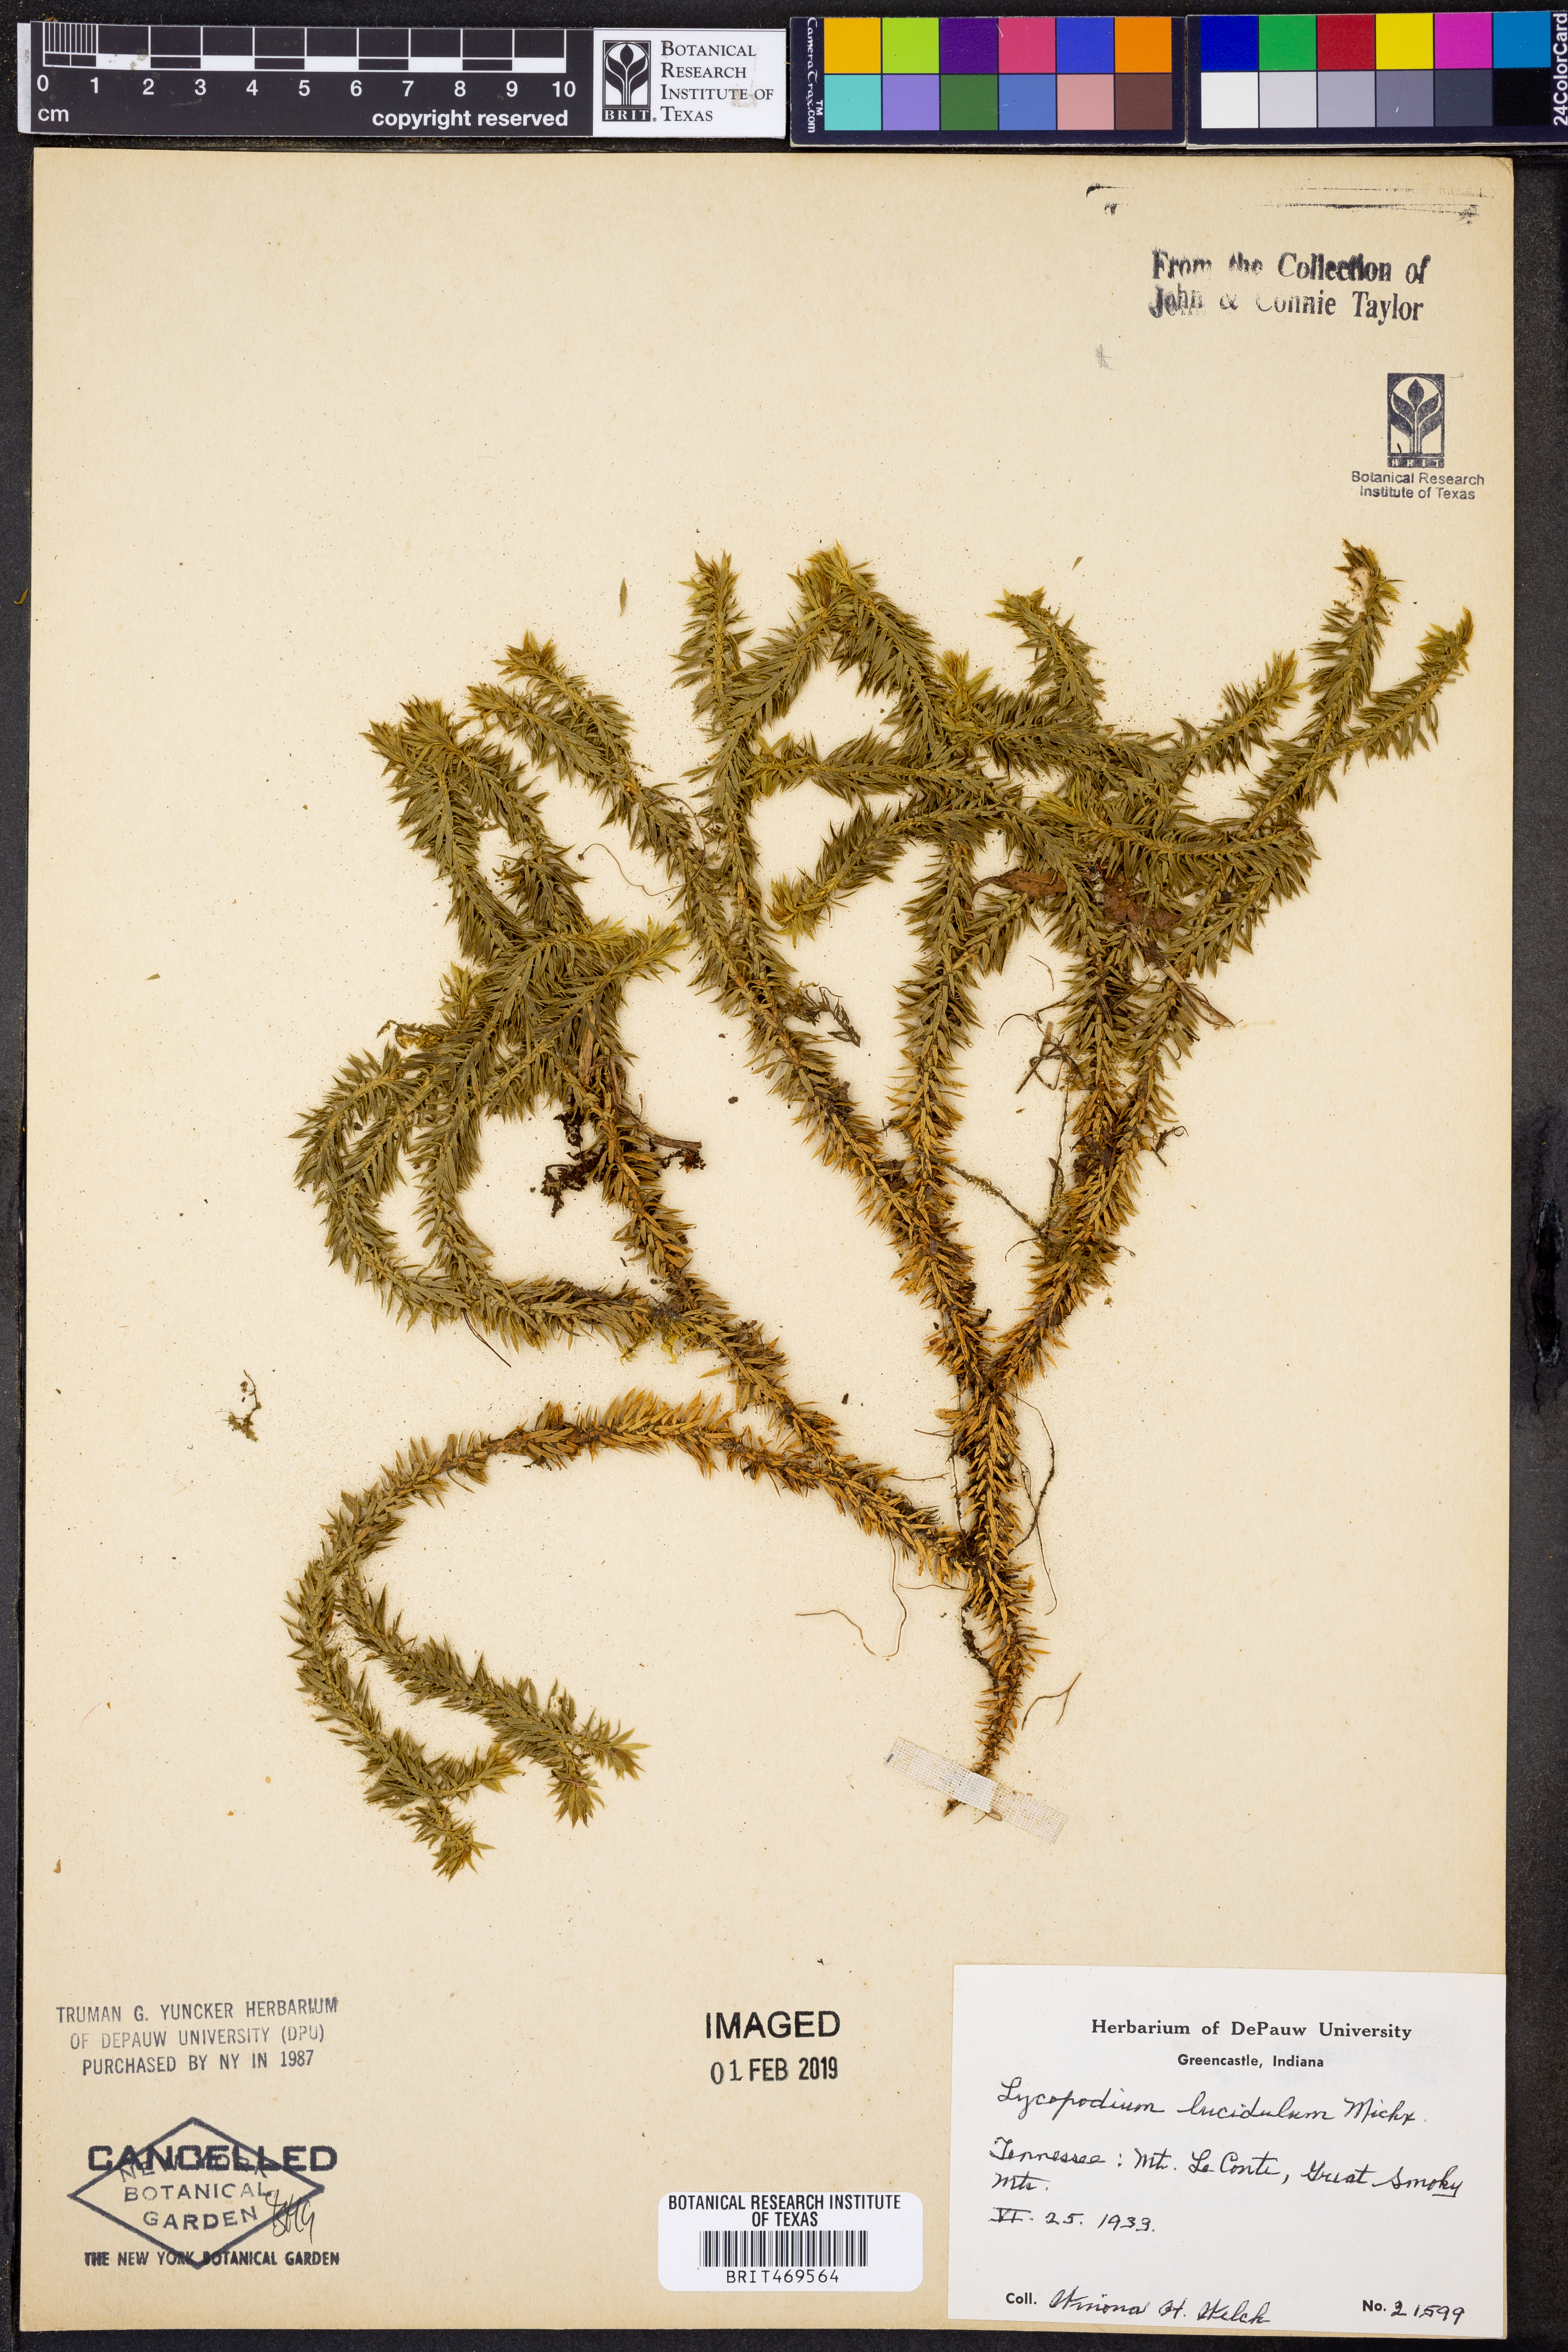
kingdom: Plantae
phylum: Tracheophyta
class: Lycopodiopsida
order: Lycopodiales
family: Lycopodiaceae
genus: Huperzia
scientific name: Huperzia lucidula
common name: Shining clubmoss
